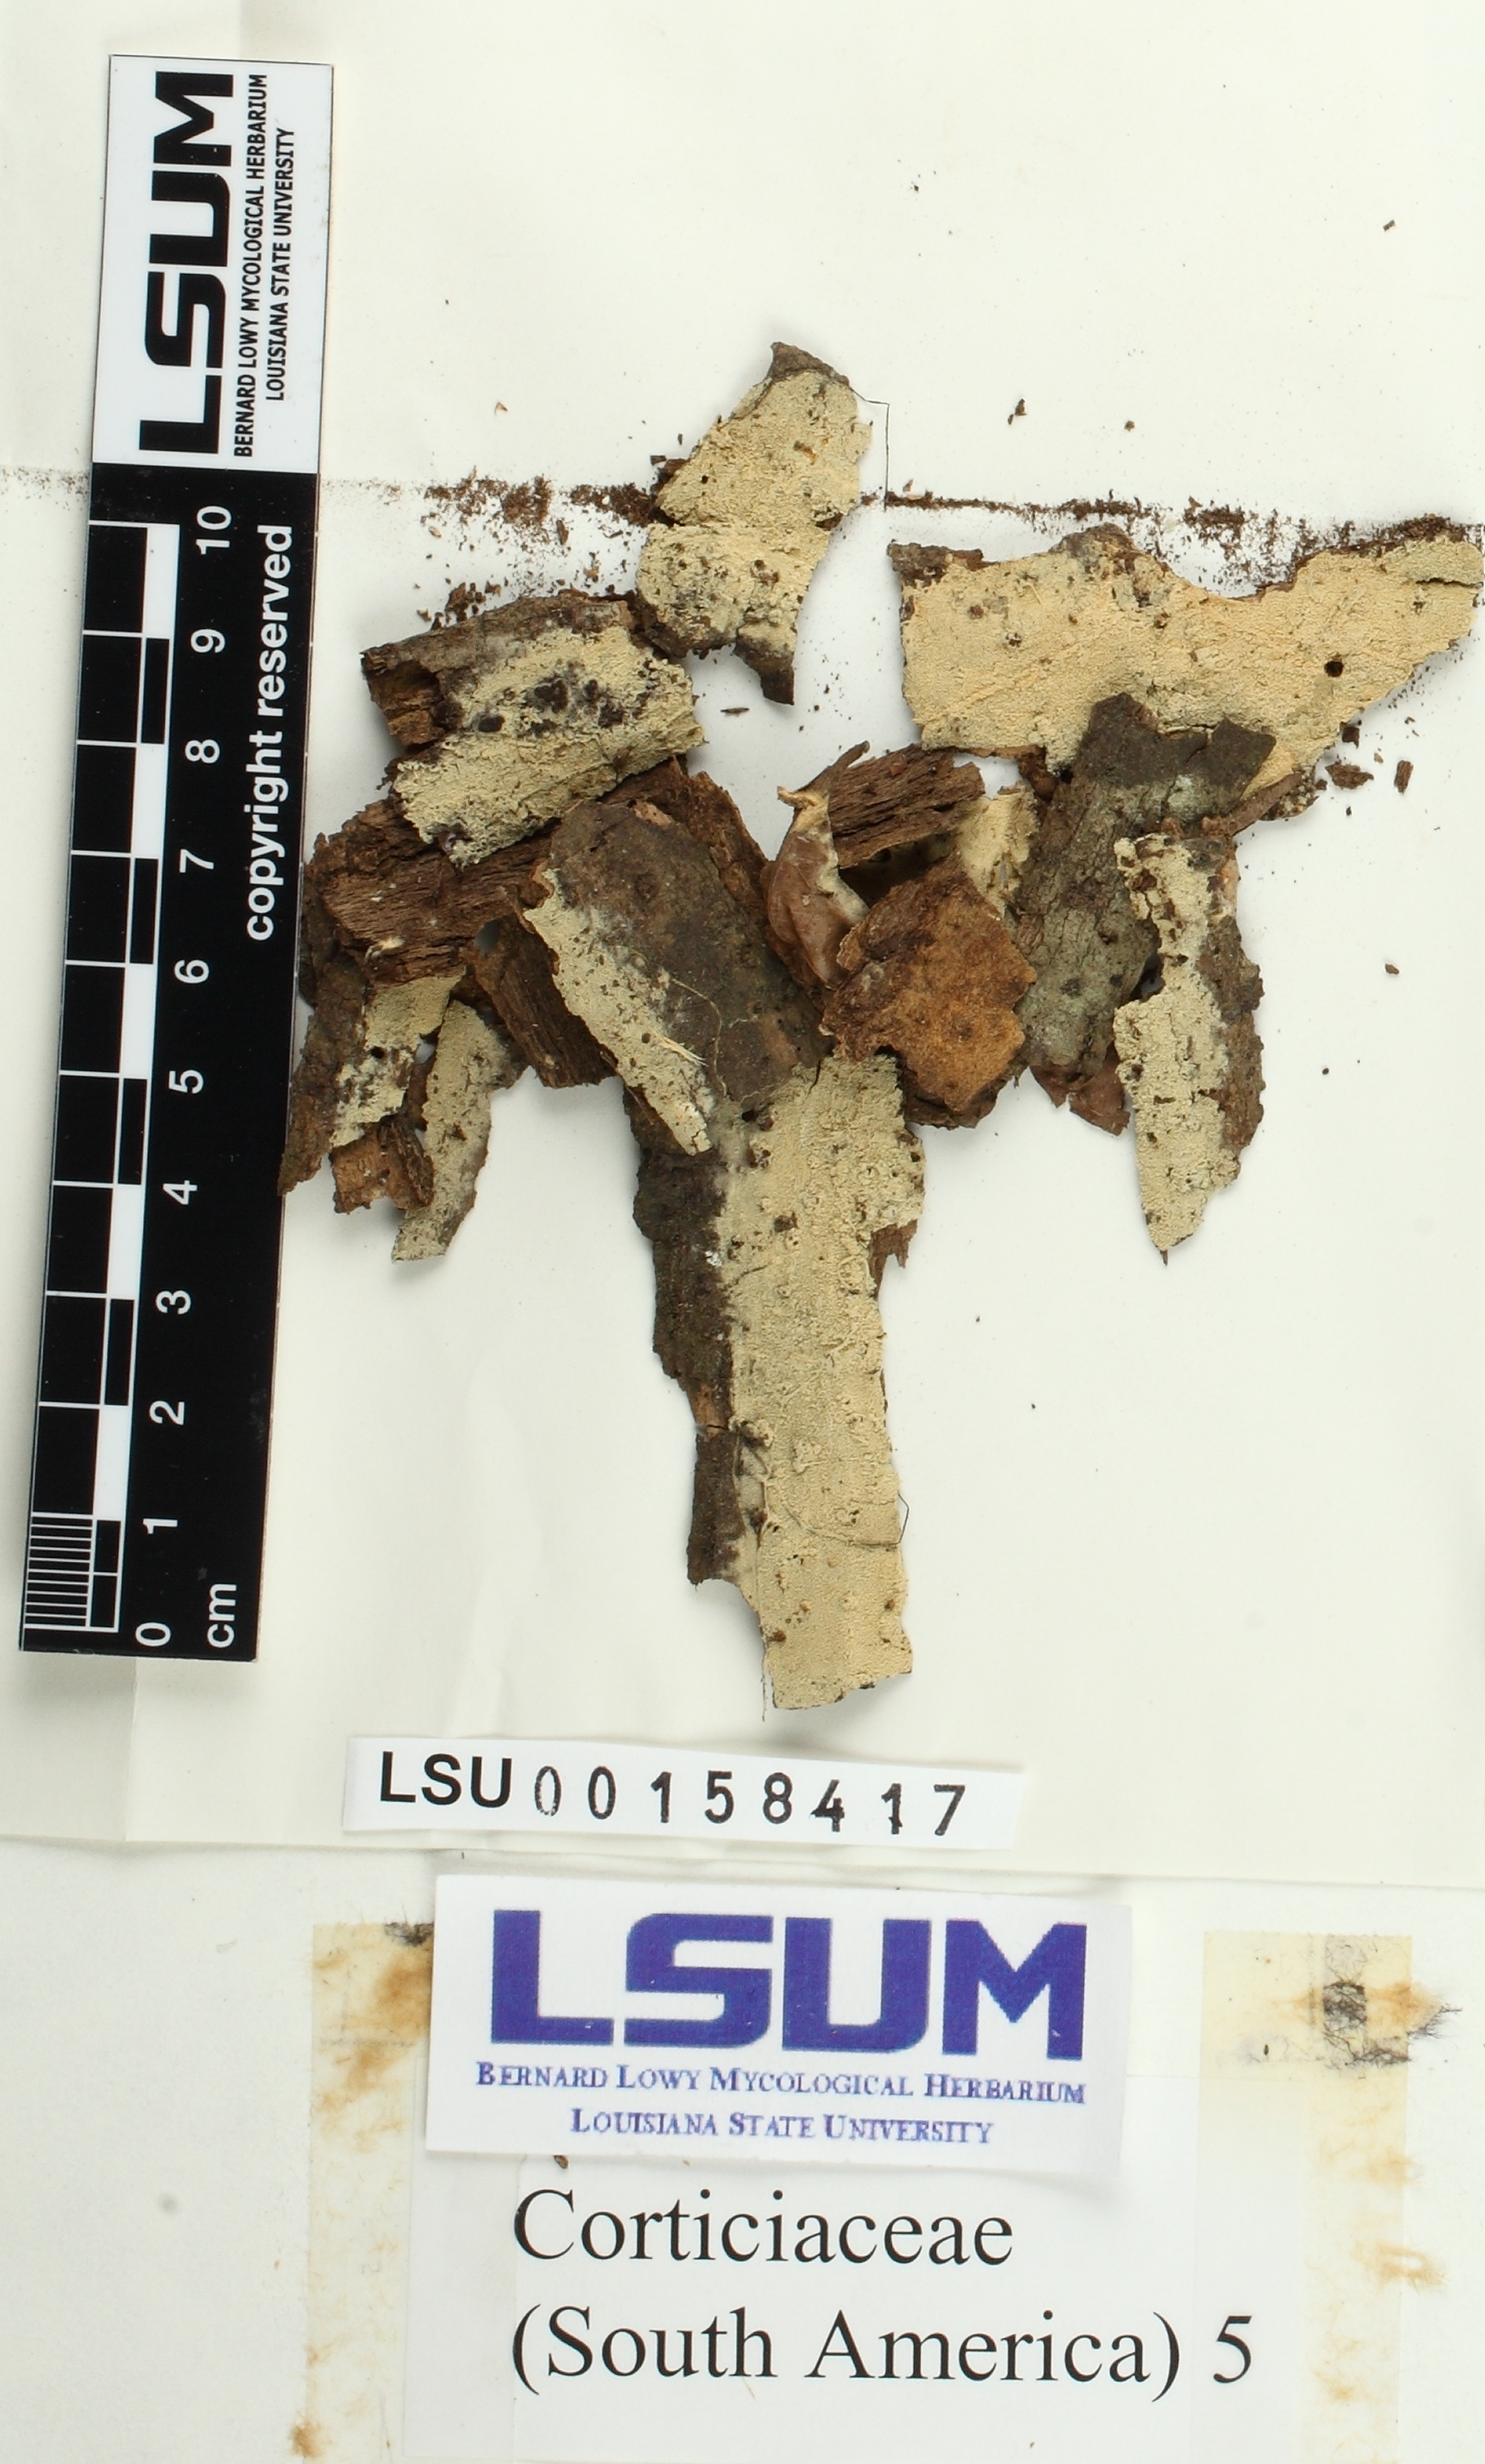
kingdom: Fungi
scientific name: Fungi
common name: Fungi
